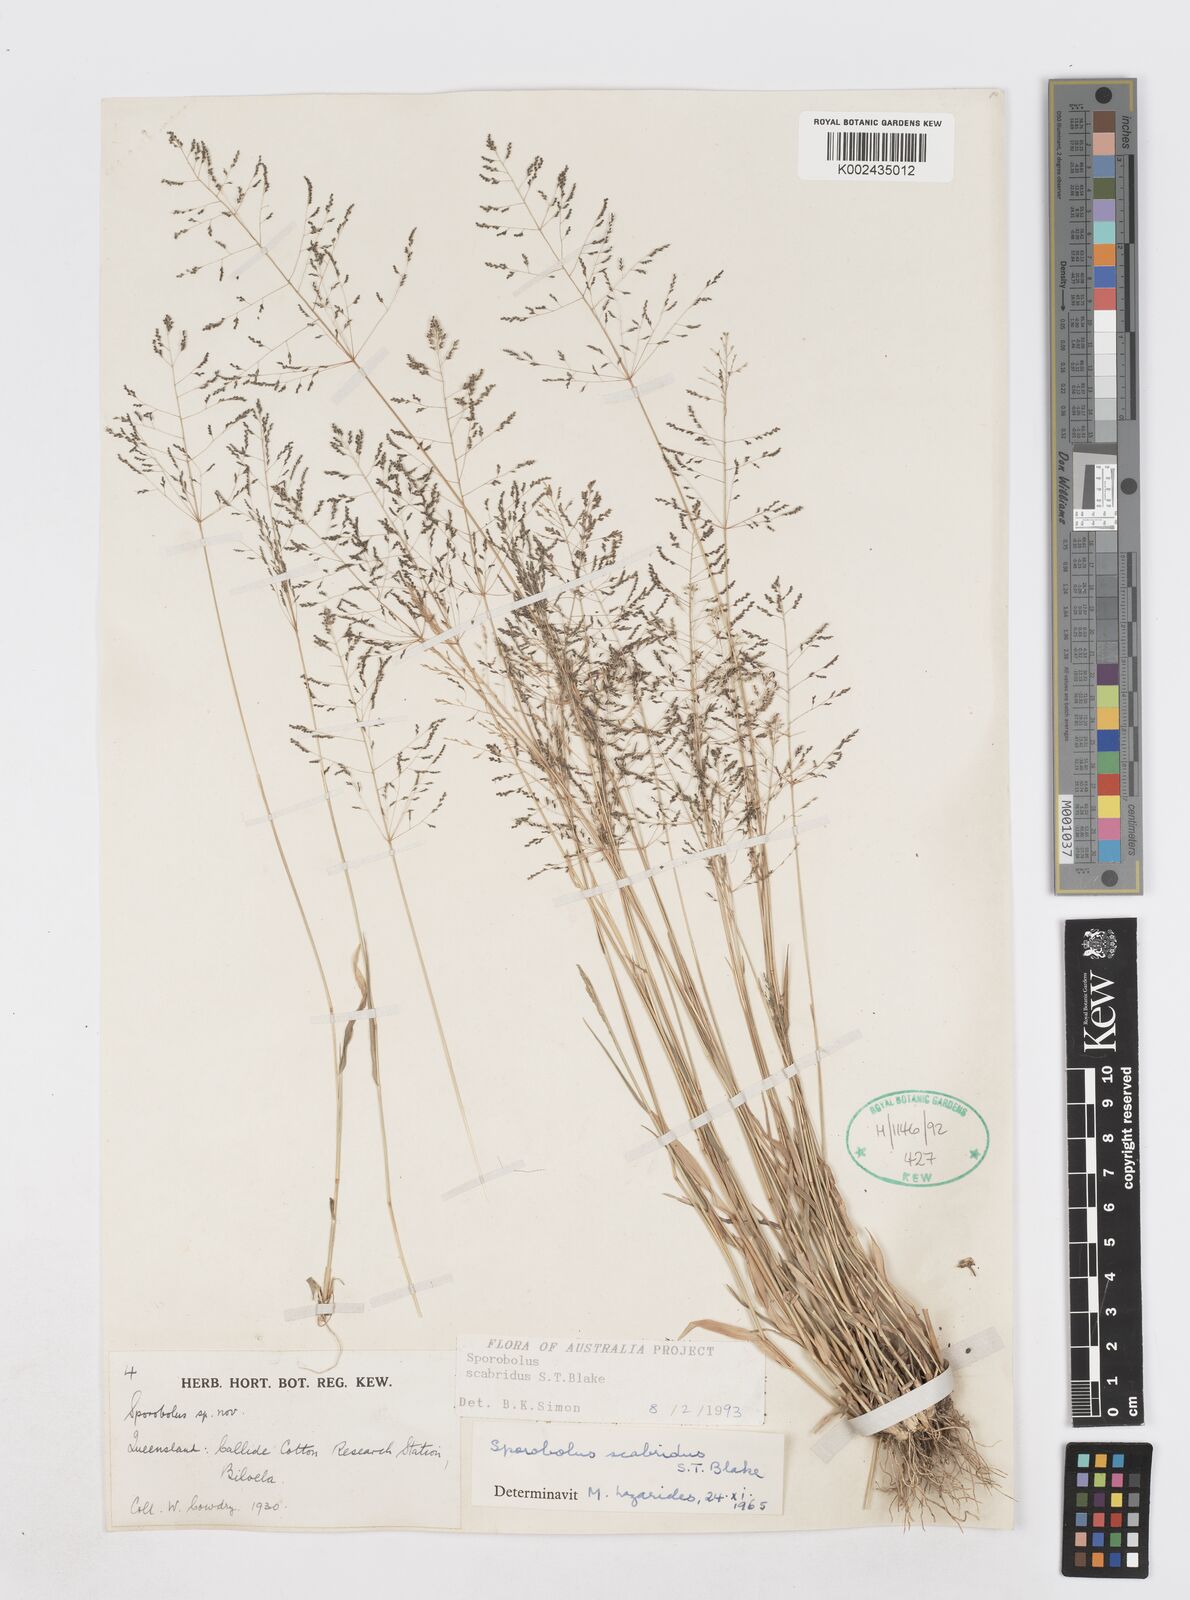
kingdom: Plantae
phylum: Tracheophyta
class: Liliopsida
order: Poales
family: Poaceae
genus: Sporobolus
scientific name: Sporobolus scabridus
